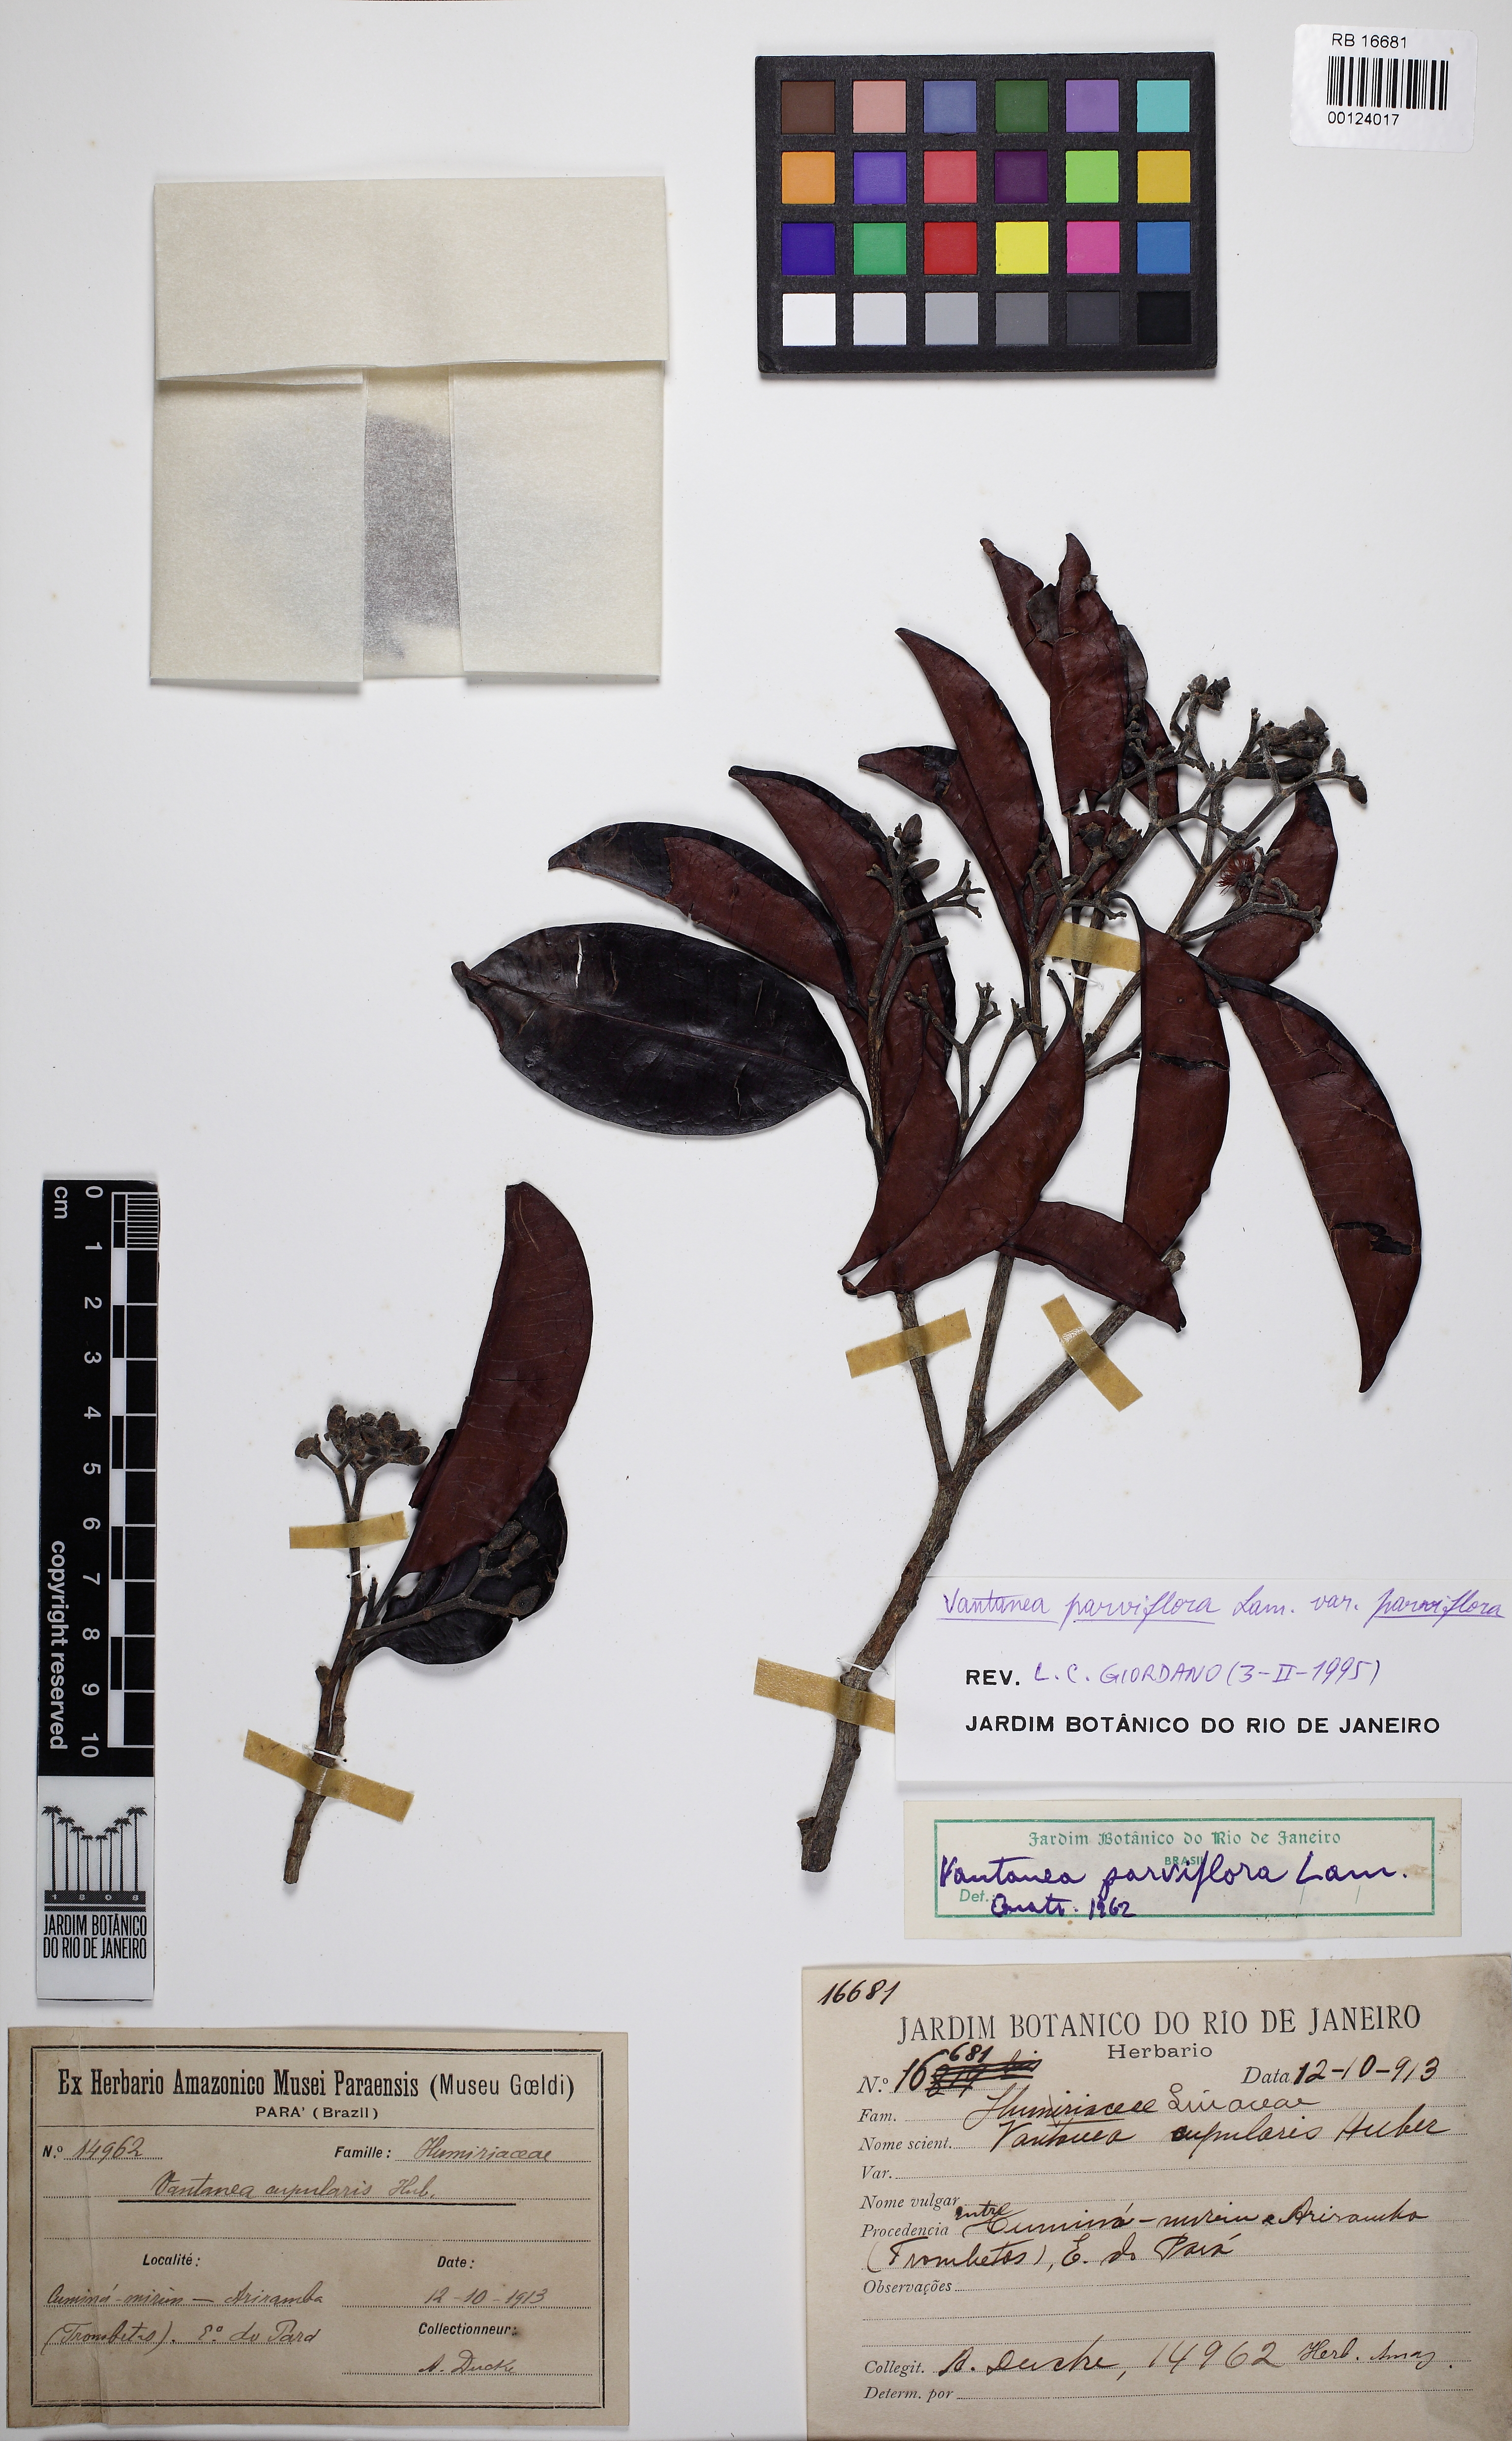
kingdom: Plantae
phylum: Tracheophyta
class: Magnoliopsida
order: Malpighiales
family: Humiriaceae
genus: Vantanea
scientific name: Vantanea parviflora
